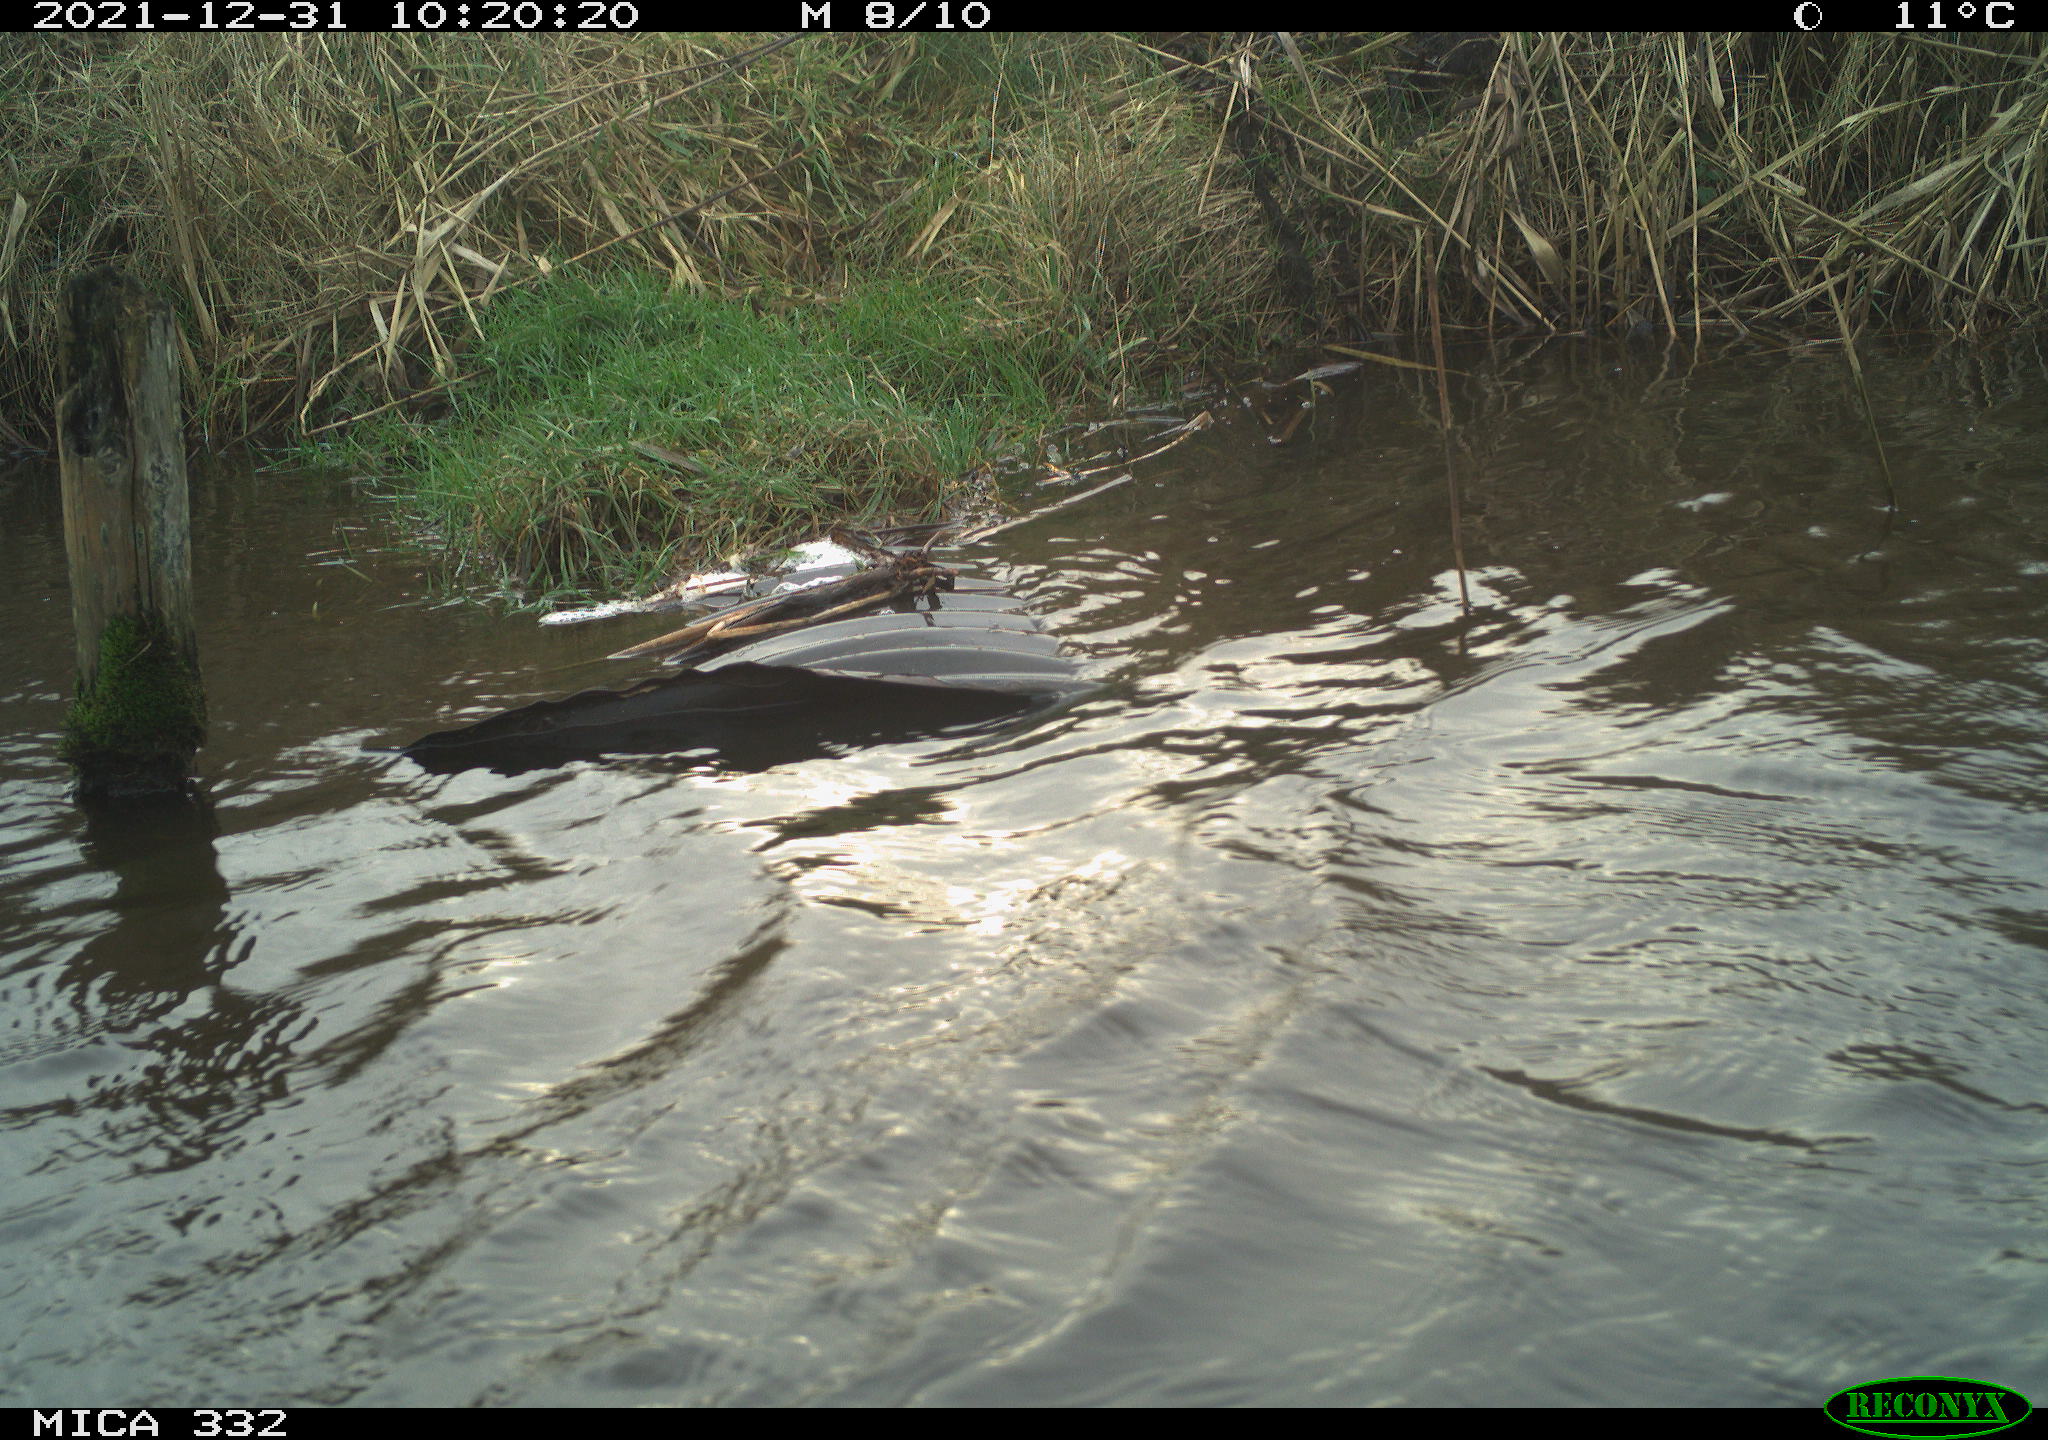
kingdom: Animalia
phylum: Chordata
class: Aves
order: Gruiformes
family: Rallidae
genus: Fulica
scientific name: Fulica atra
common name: Eurasian coot
